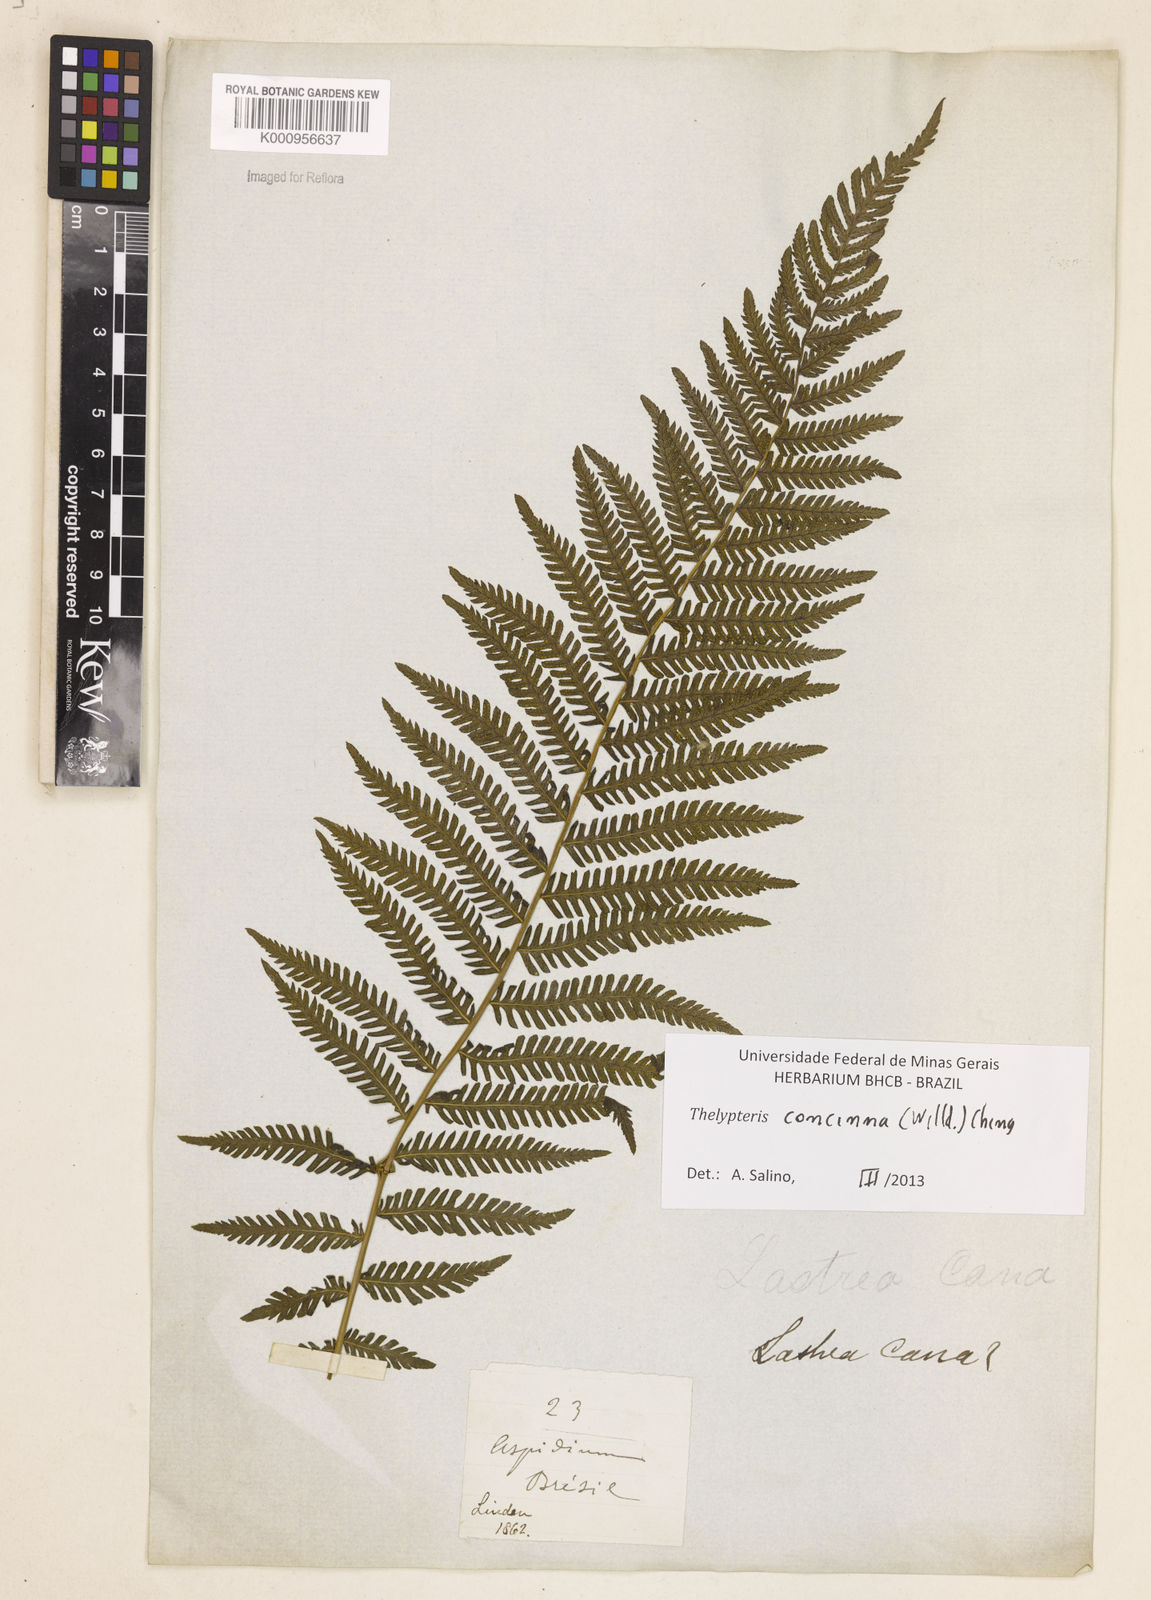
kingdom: Plantae
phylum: Tracheophyta
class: Polypodiopsida
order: Polypodiales
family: Thelypteridaceae
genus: Amauropelta
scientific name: Amauropelta concinna
